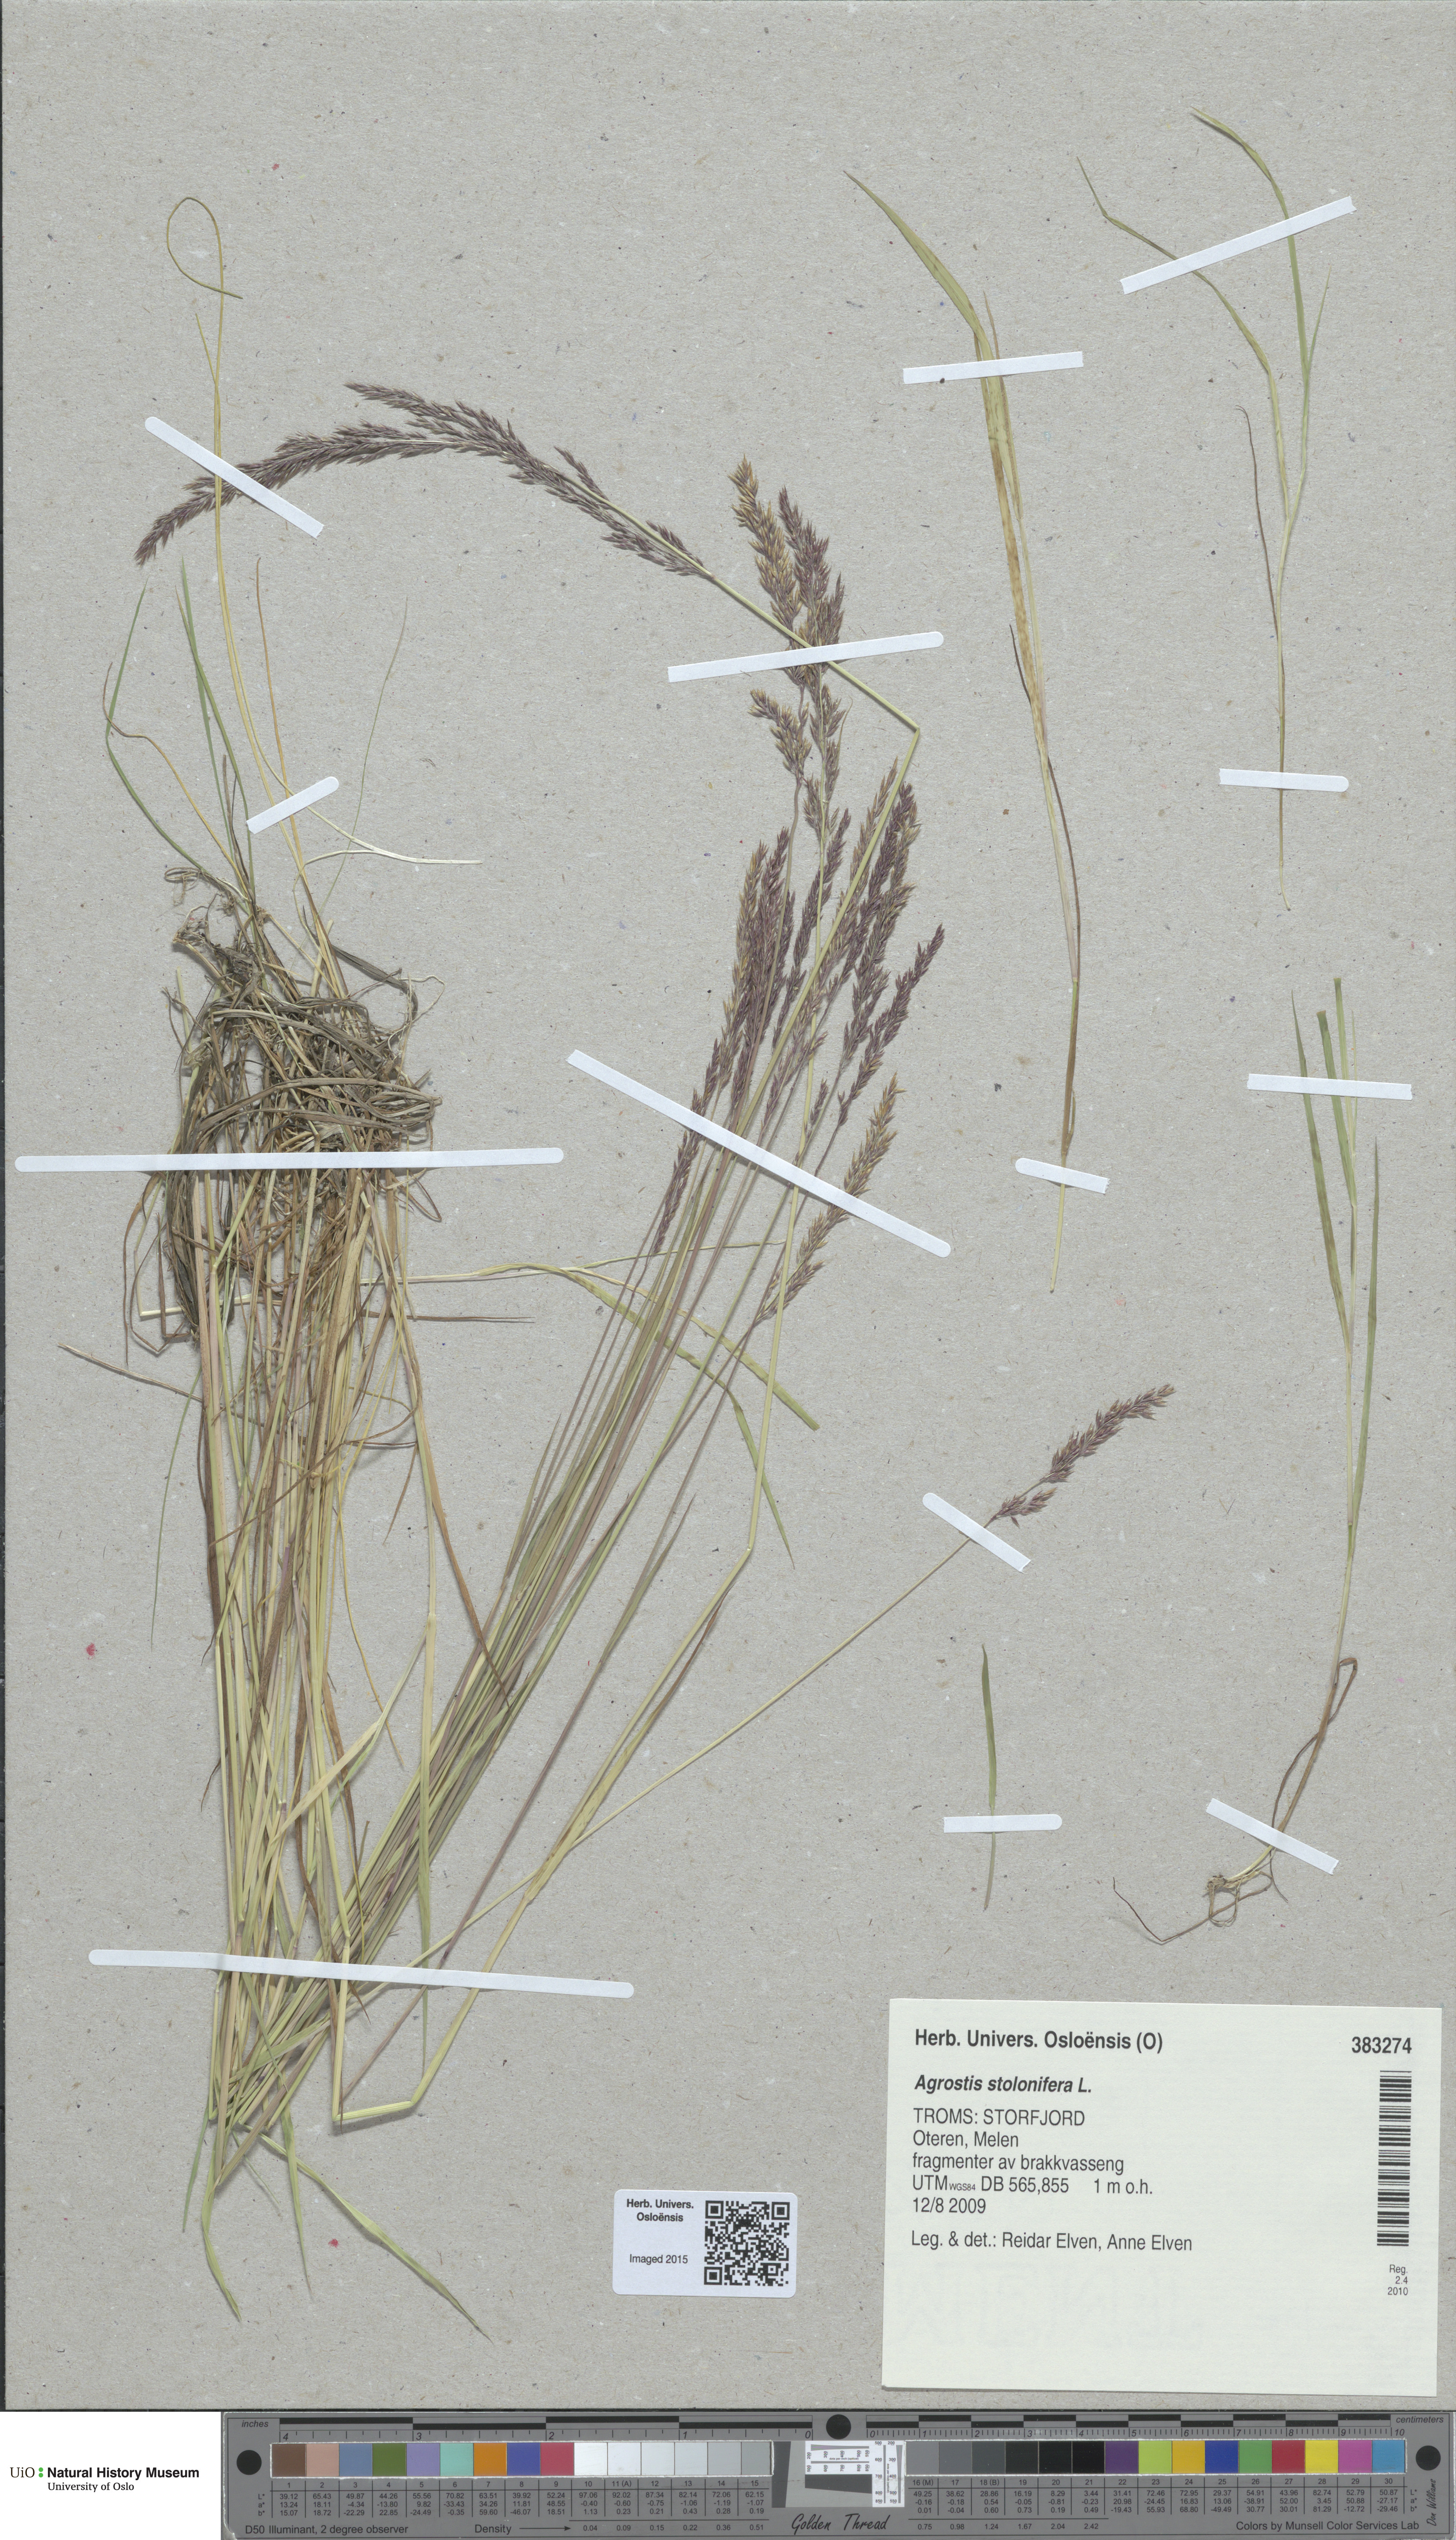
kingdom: Plantae
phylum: Tracheophyta
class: Liliopsida
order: Poales
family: Poaceae
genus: Agrostis
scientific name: Agrostis stolonifera
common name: Creeping bentgrass
